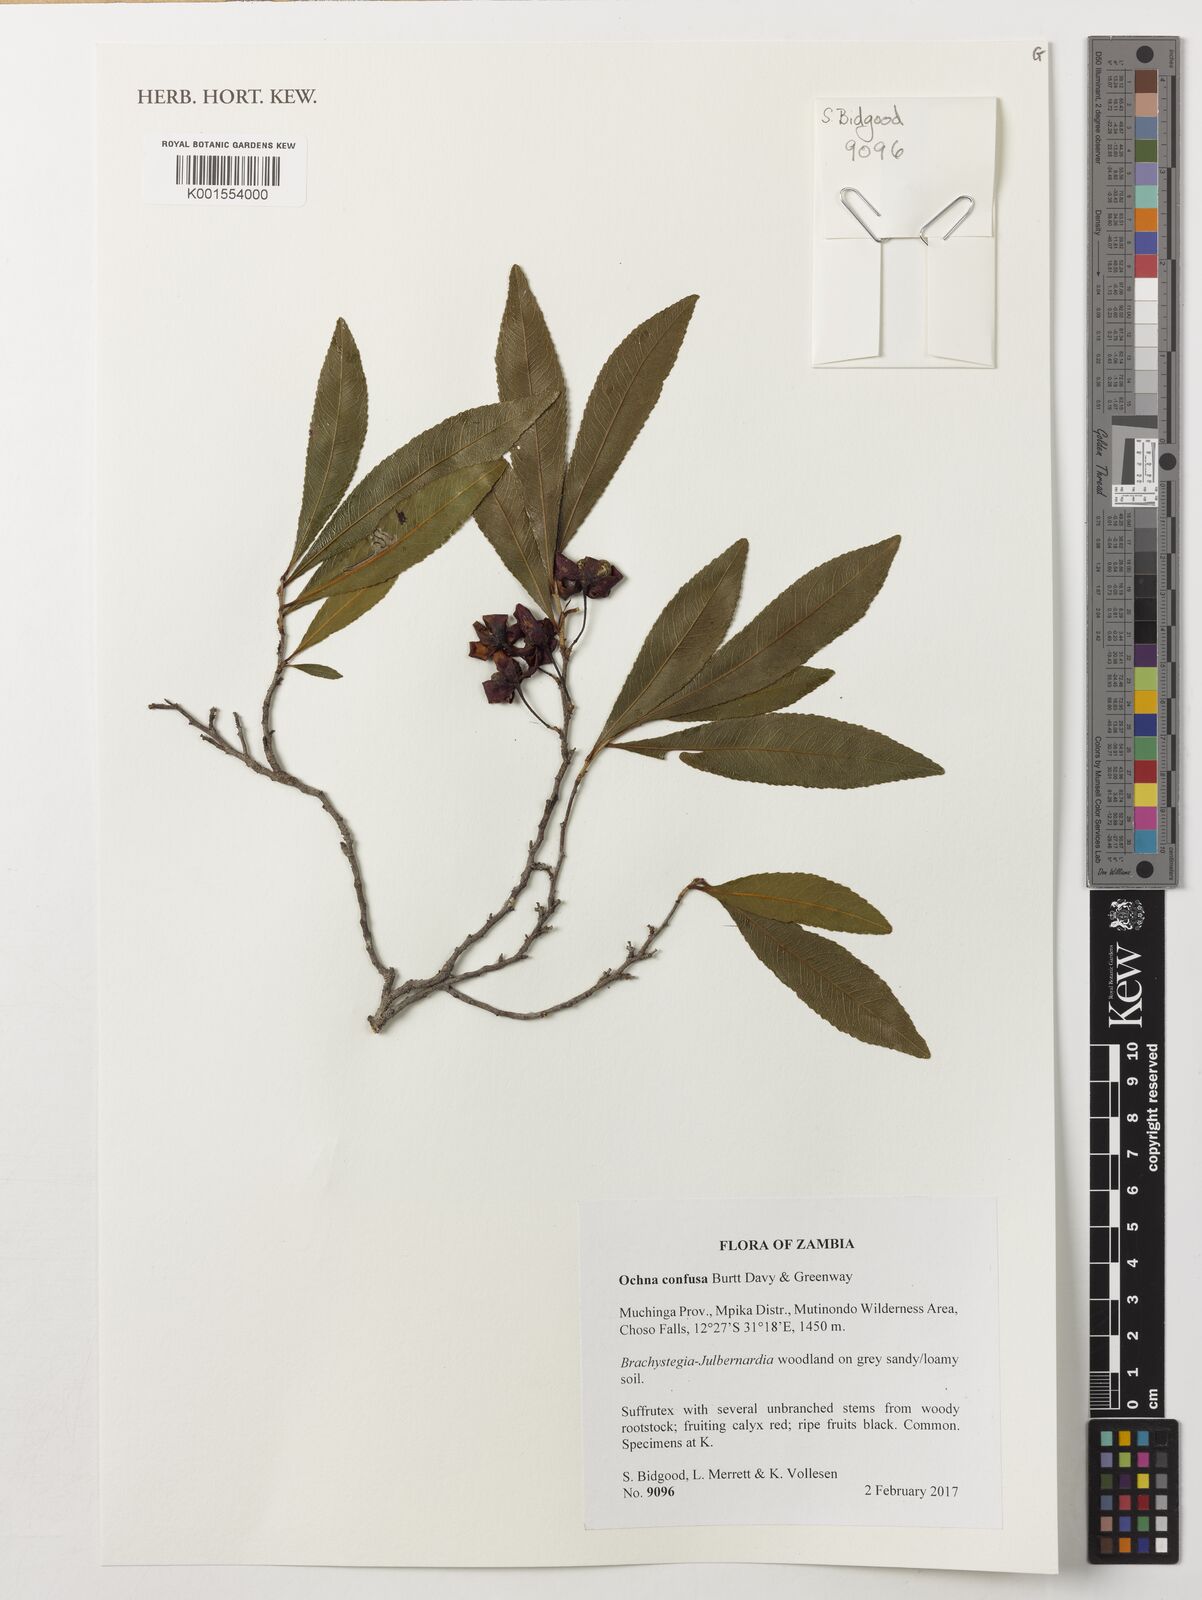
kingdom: Plantae
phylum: Tracheophyta
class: Magnoliopsida
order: Malpighiales
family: Ochnaceae
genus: Ochna
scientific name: Ochna confusa
